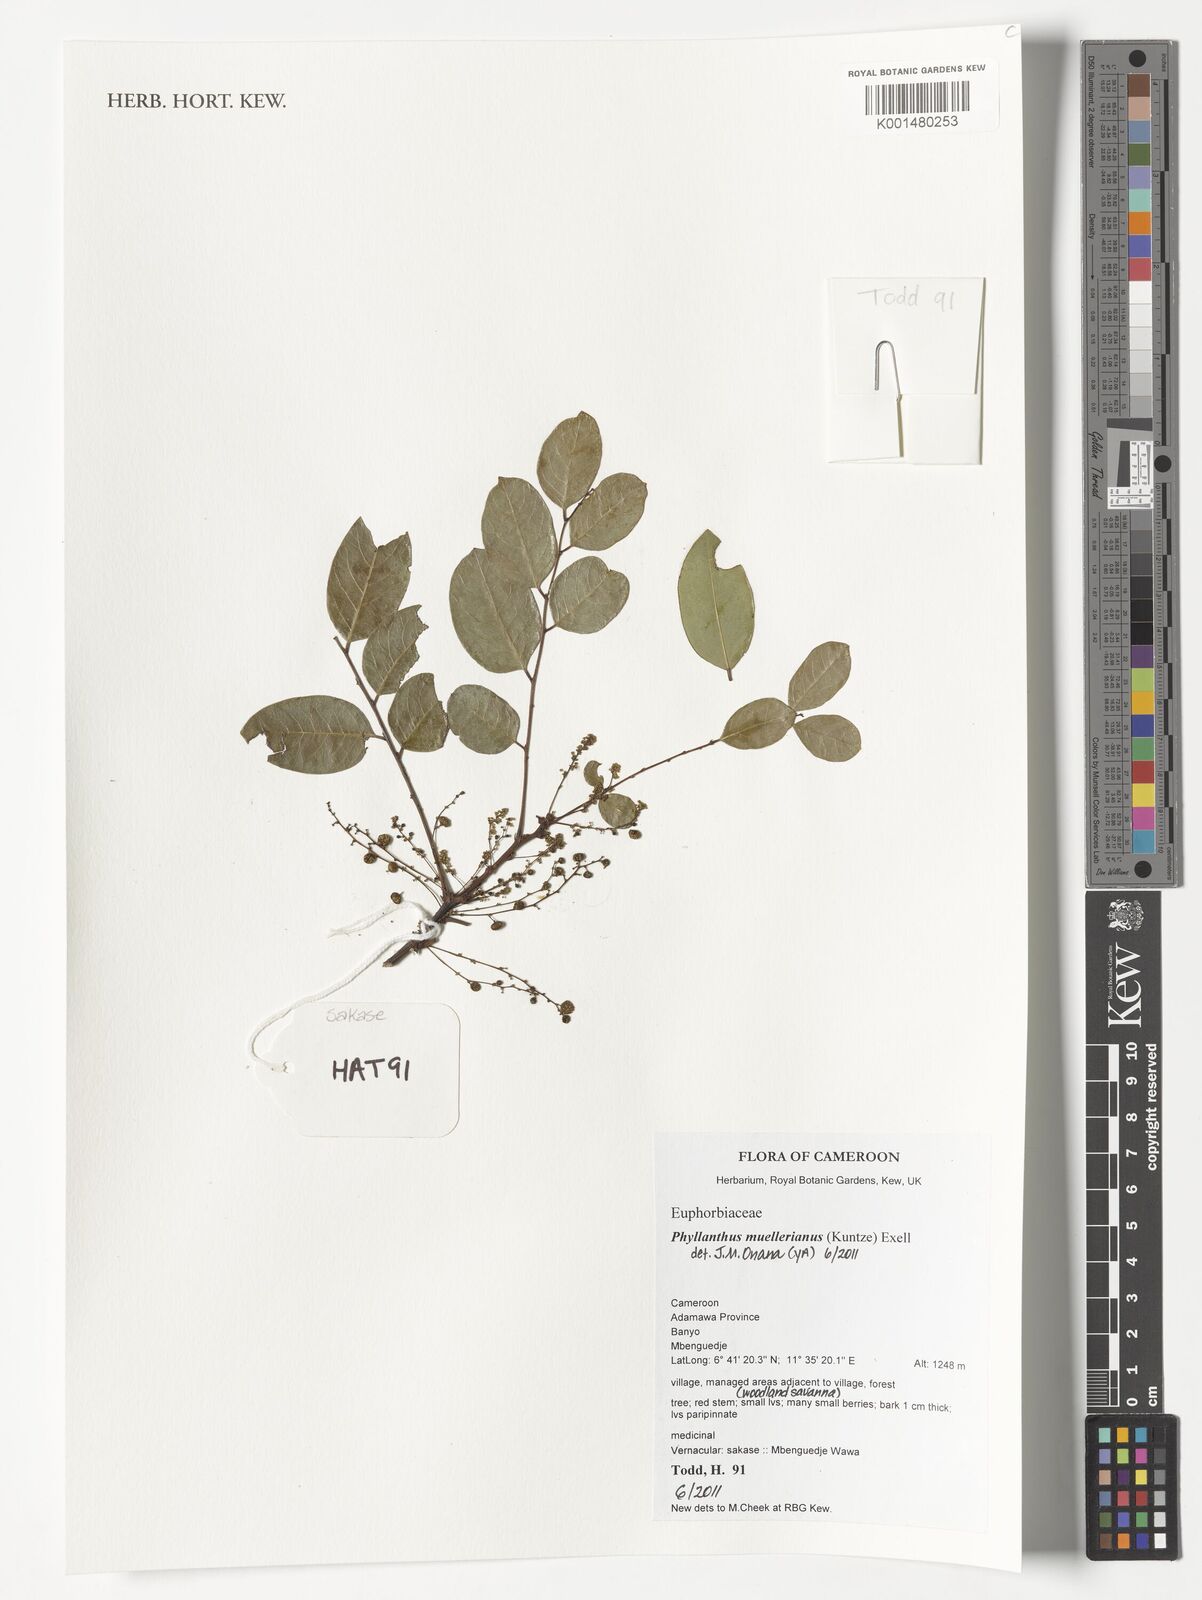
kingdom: Plantae
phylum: Tracheophyta
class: Magnoliopsida
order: Malpighiales
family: Phyllanthaceae
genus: Phyllanthus
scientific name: Phyllanthus muellerianus
